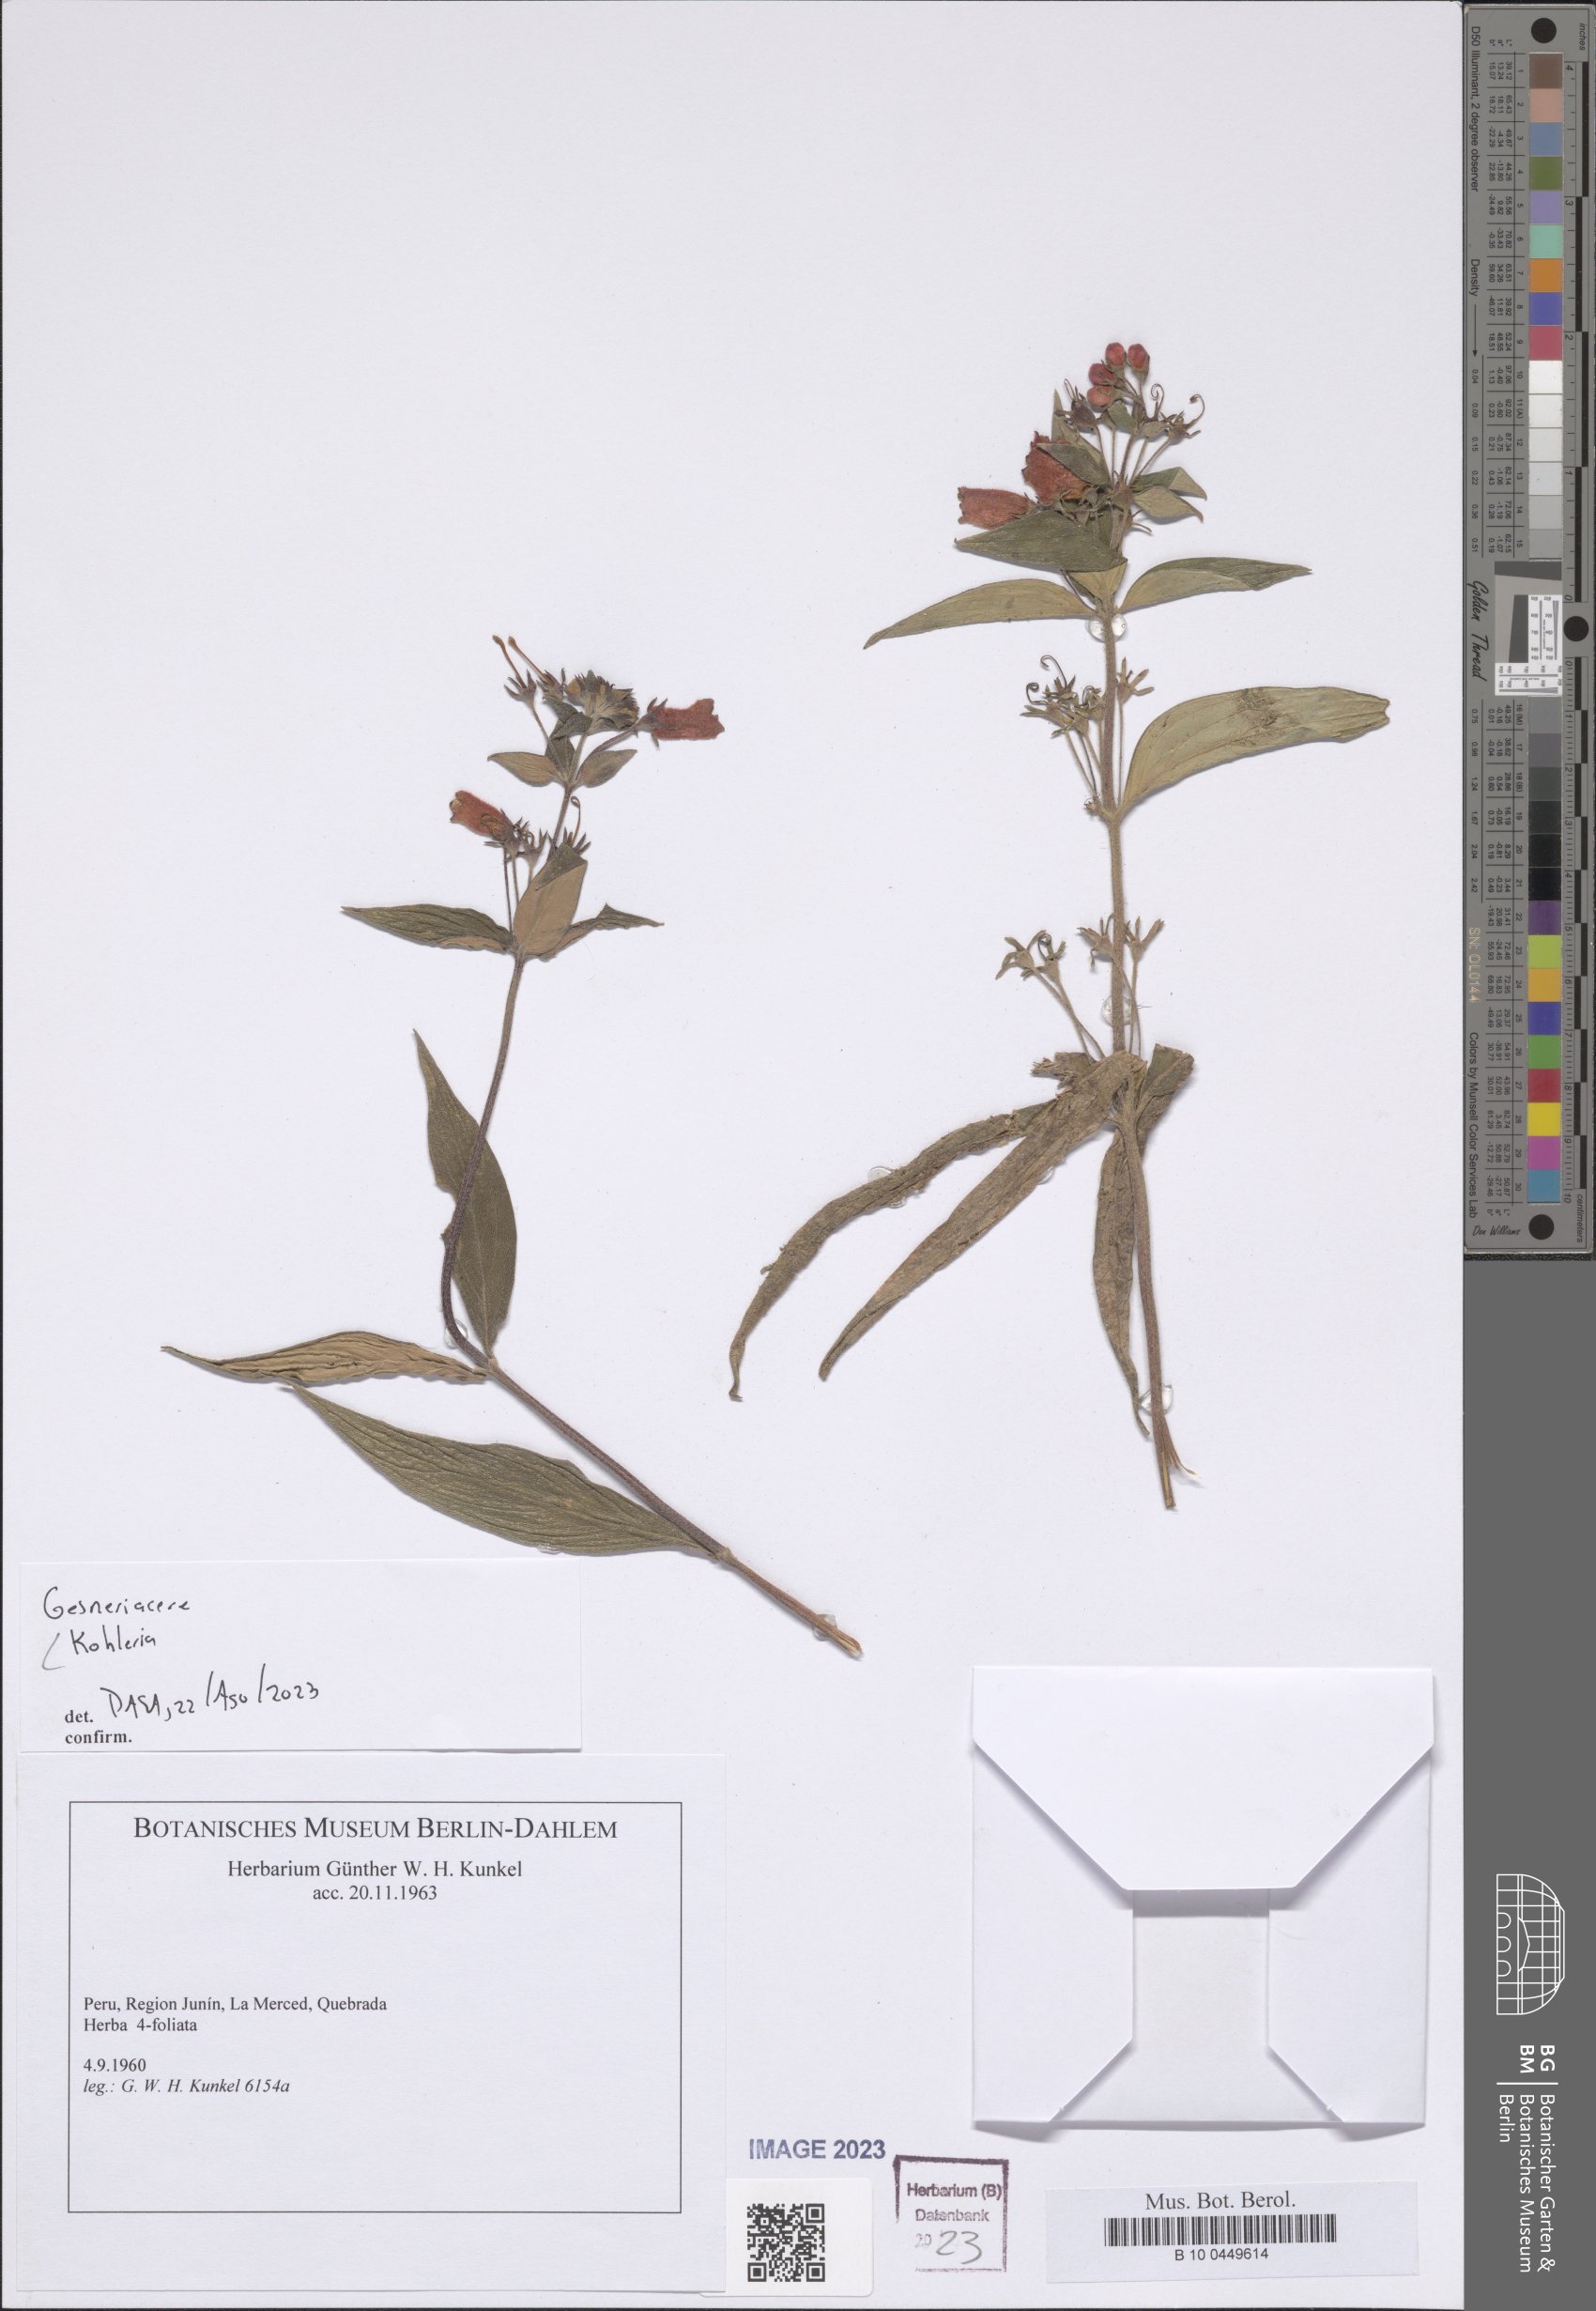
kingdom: Plantae
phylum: Tracheophyta
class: Magnoliopsida
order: Lamiales
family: Gesneriaceae
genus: Kohleria
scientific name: Kohleria
